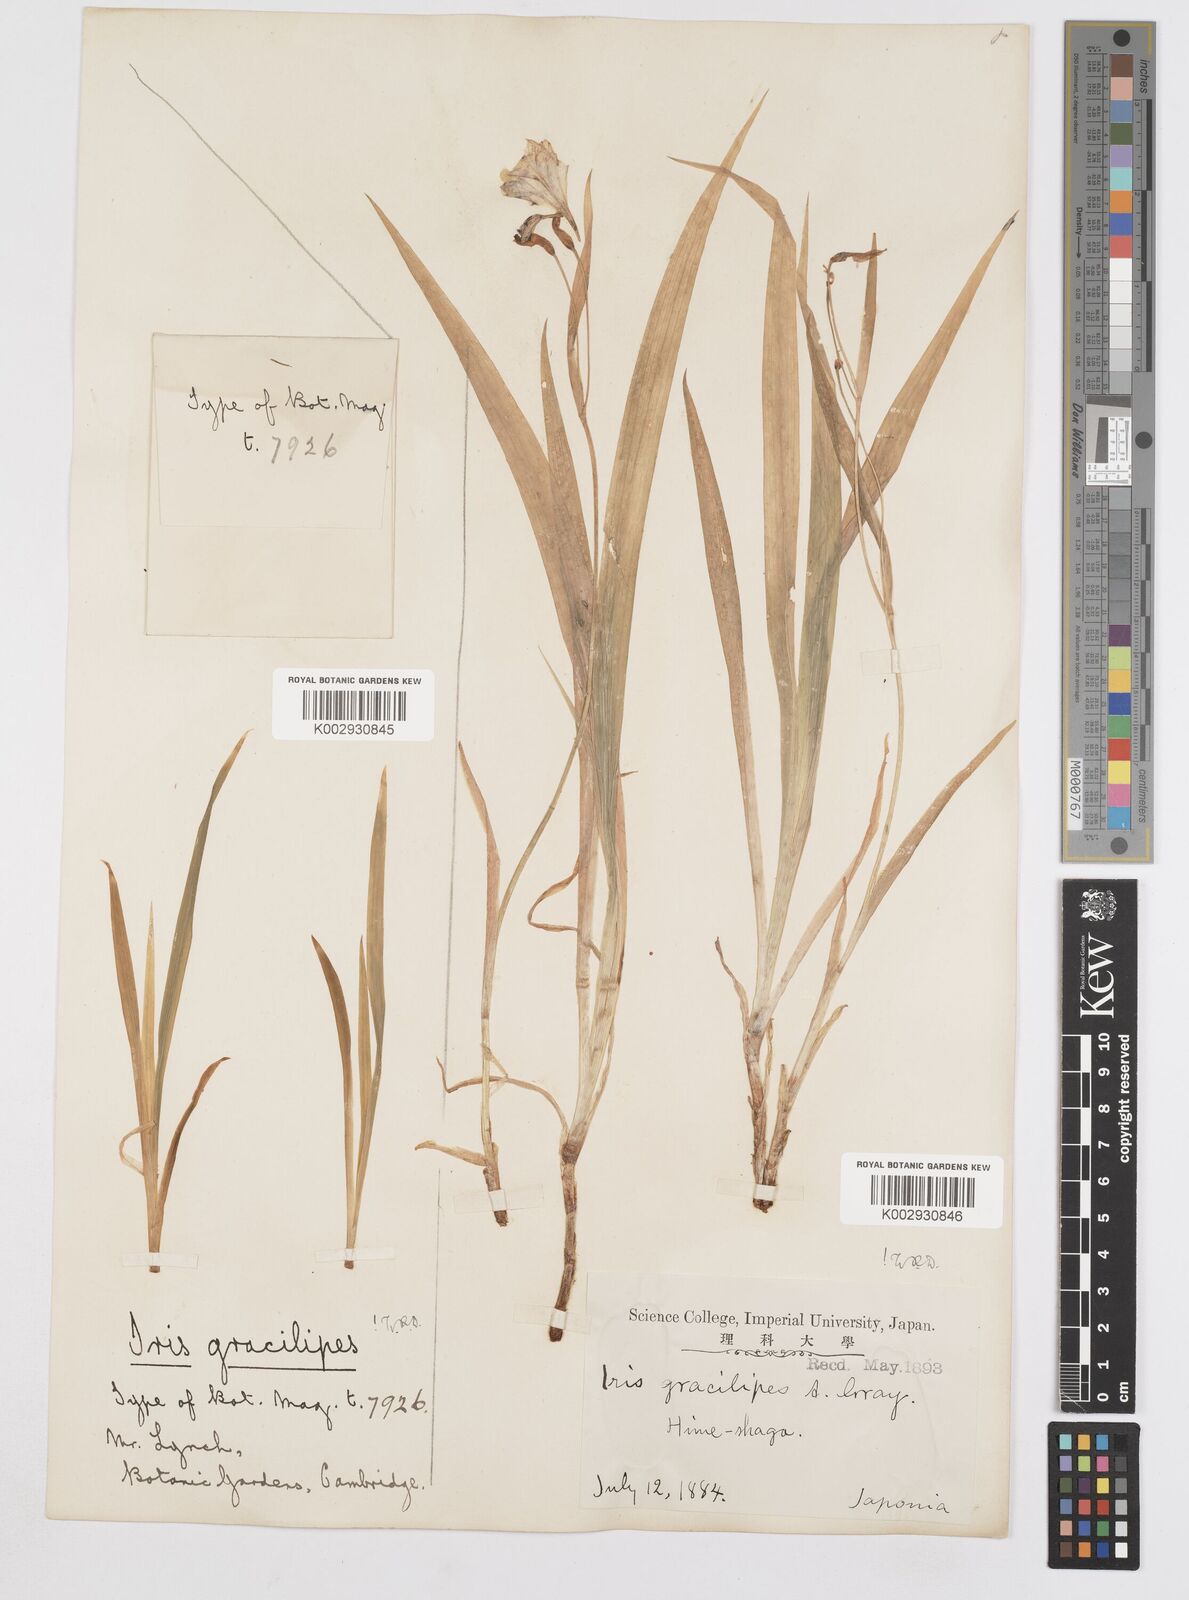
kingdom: Plantae
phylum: Tracheophyta
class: Liliopsida
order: Asparagales
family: Iridaceae
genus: Iris
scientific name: Iris gracilipes
